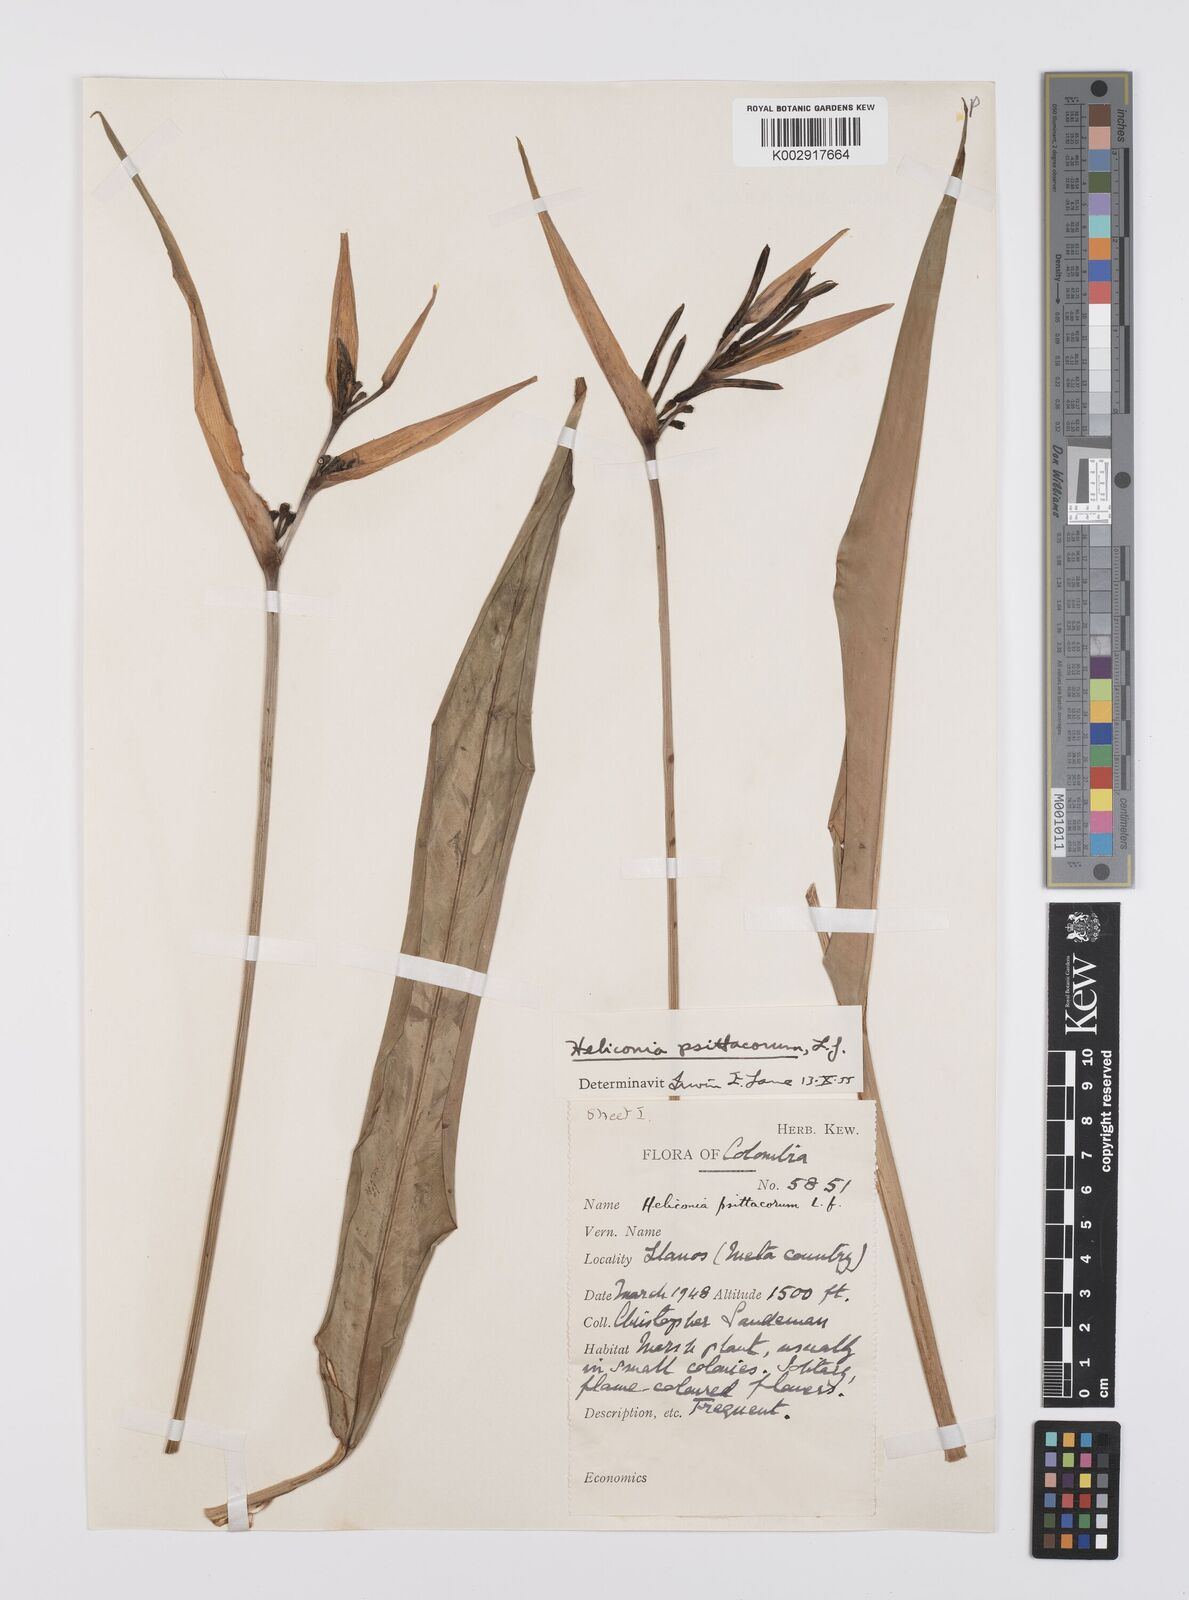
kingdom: Plantae
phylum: Tracheophyta
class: Liliopsida
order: Zingiberales
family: Heliconiaceae
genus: Heliconia
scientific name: Heliconia psittacorum
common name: Parrot's-flower
